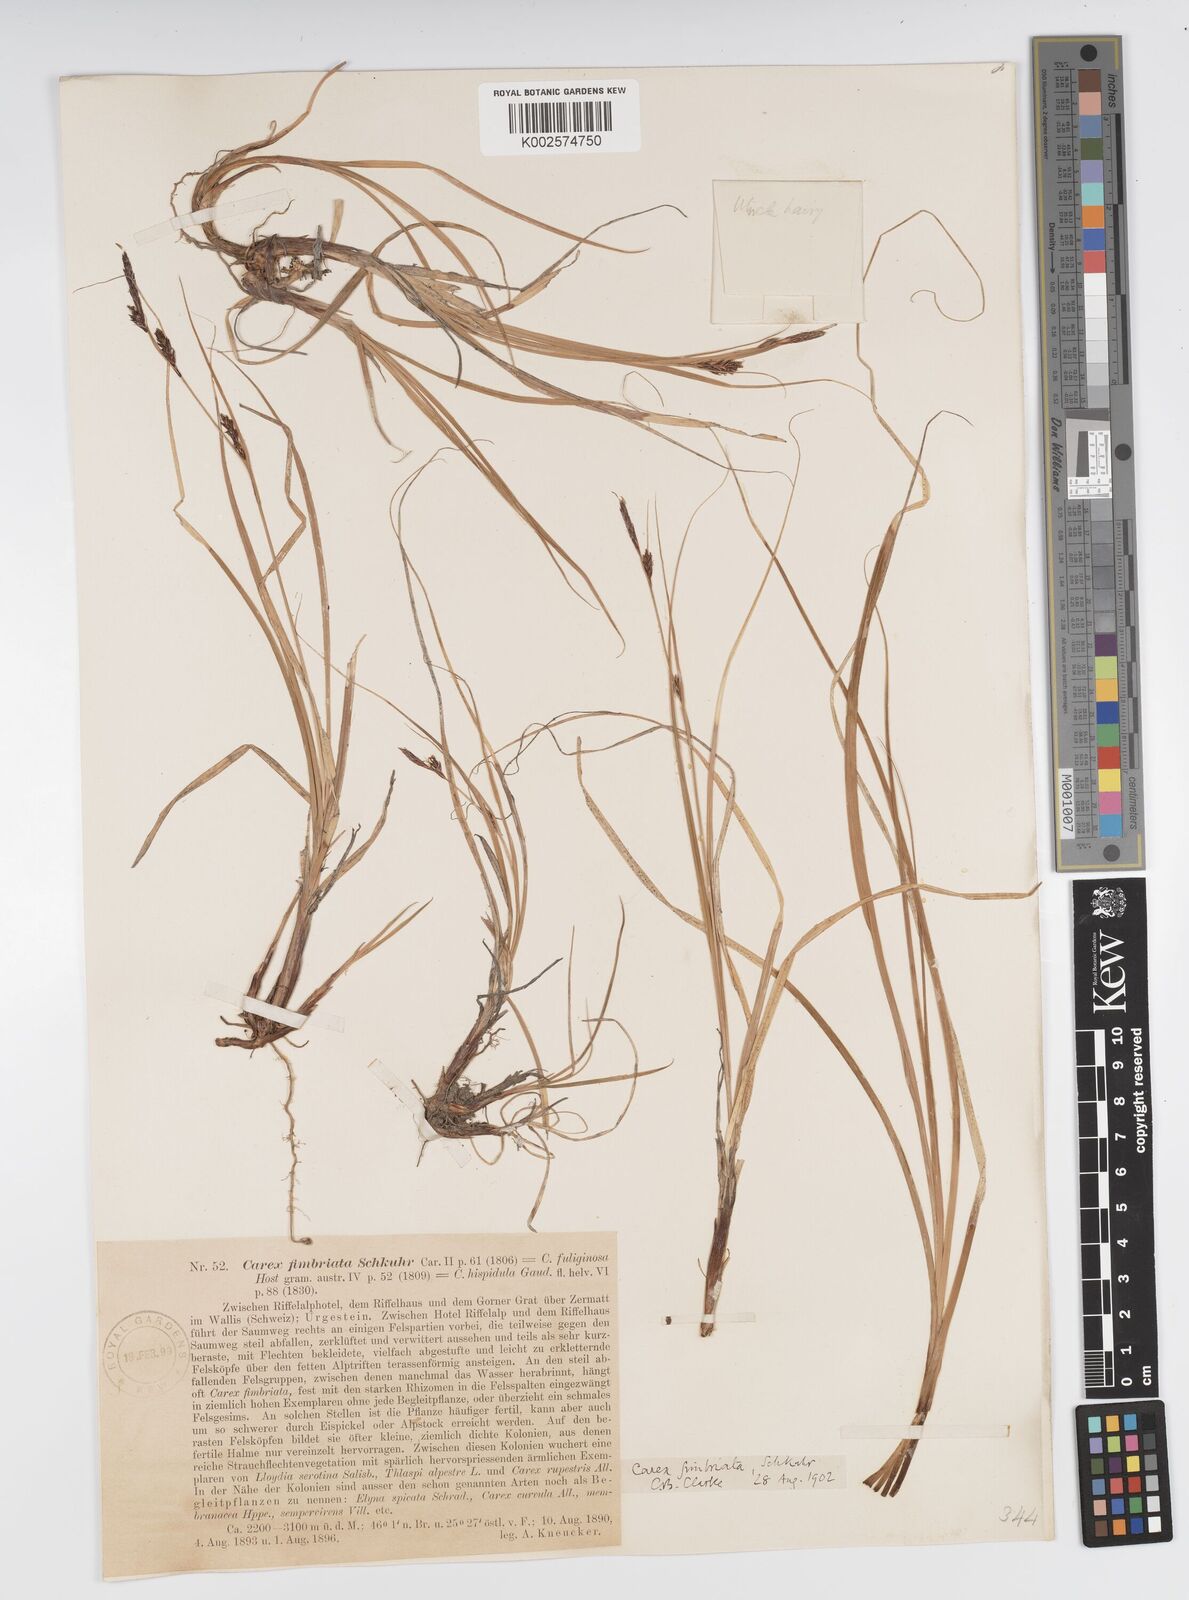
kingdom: Plantae
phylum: Tracheophyta
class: Liliopsida
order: Poales
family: Cyperaceae
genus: Carex
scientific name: Carex fimbriata
